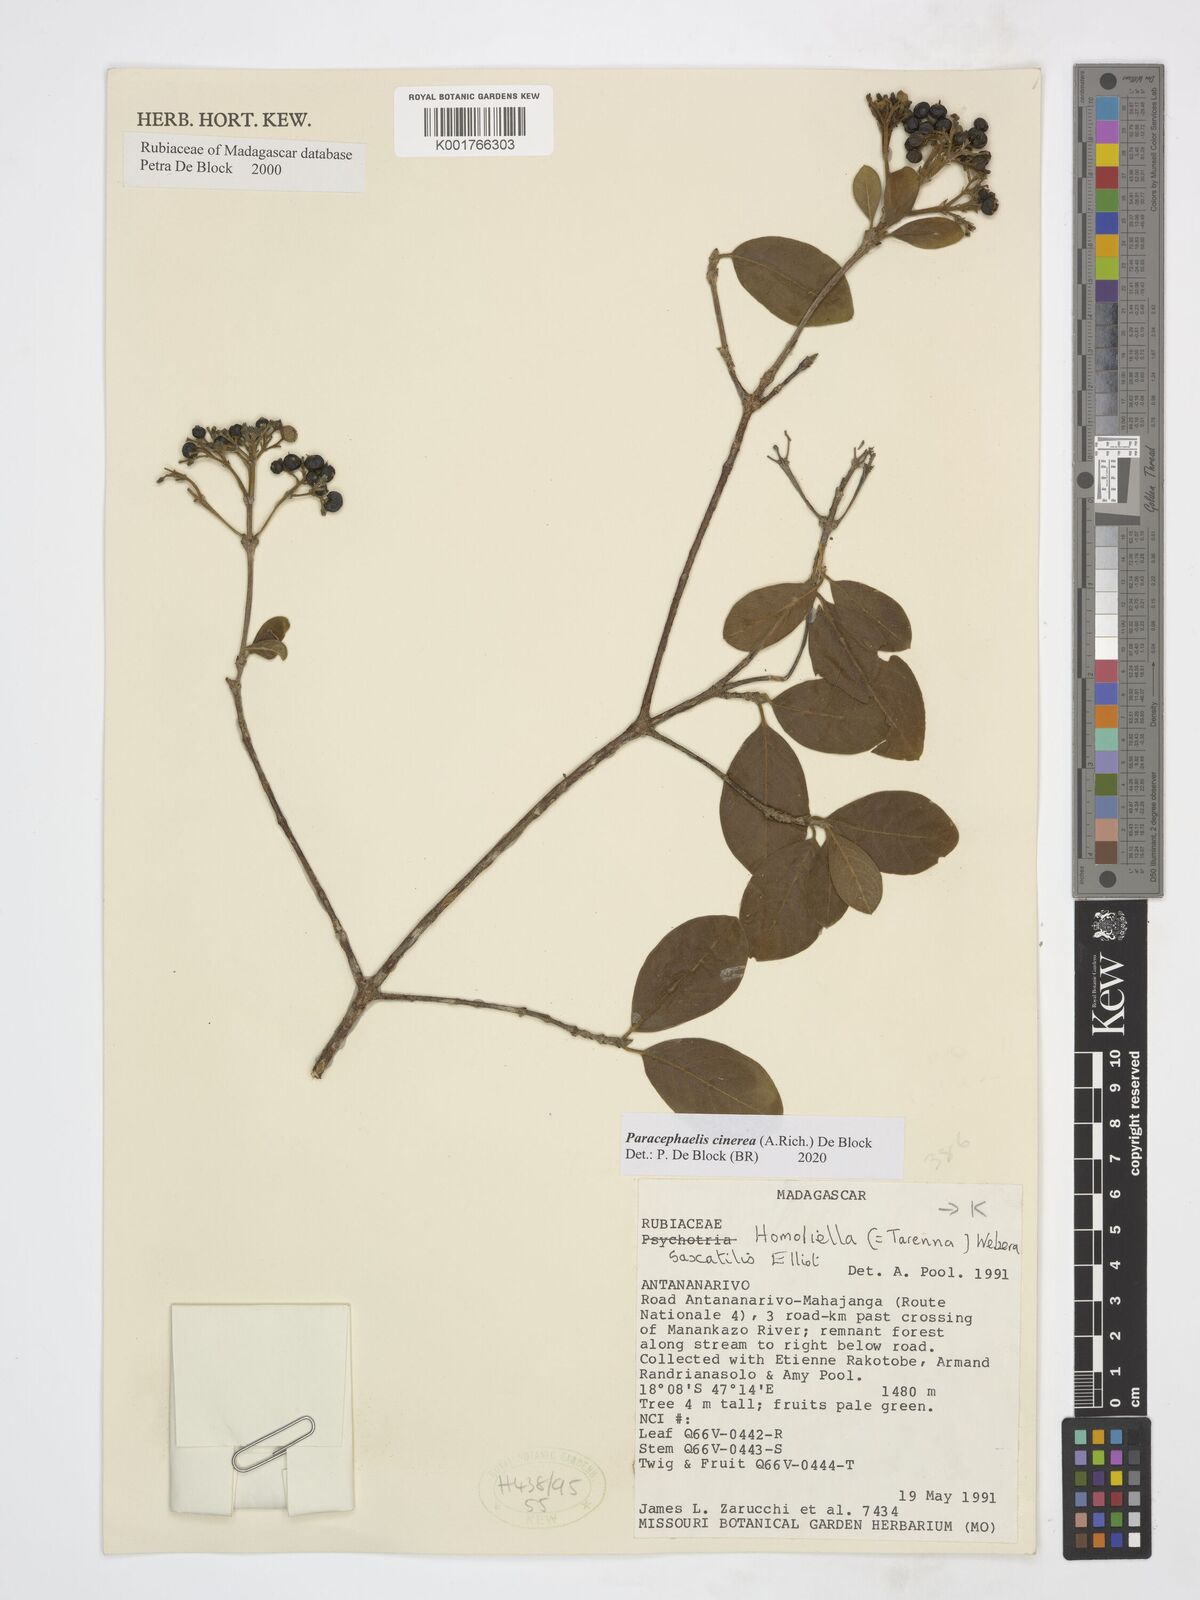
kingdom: Plantae
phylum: Tracheophyta
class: Magnoliopsida
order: Gentianales
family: Rubiaceae
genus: Paracephaelis
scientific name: Paracephaelis cinerea
